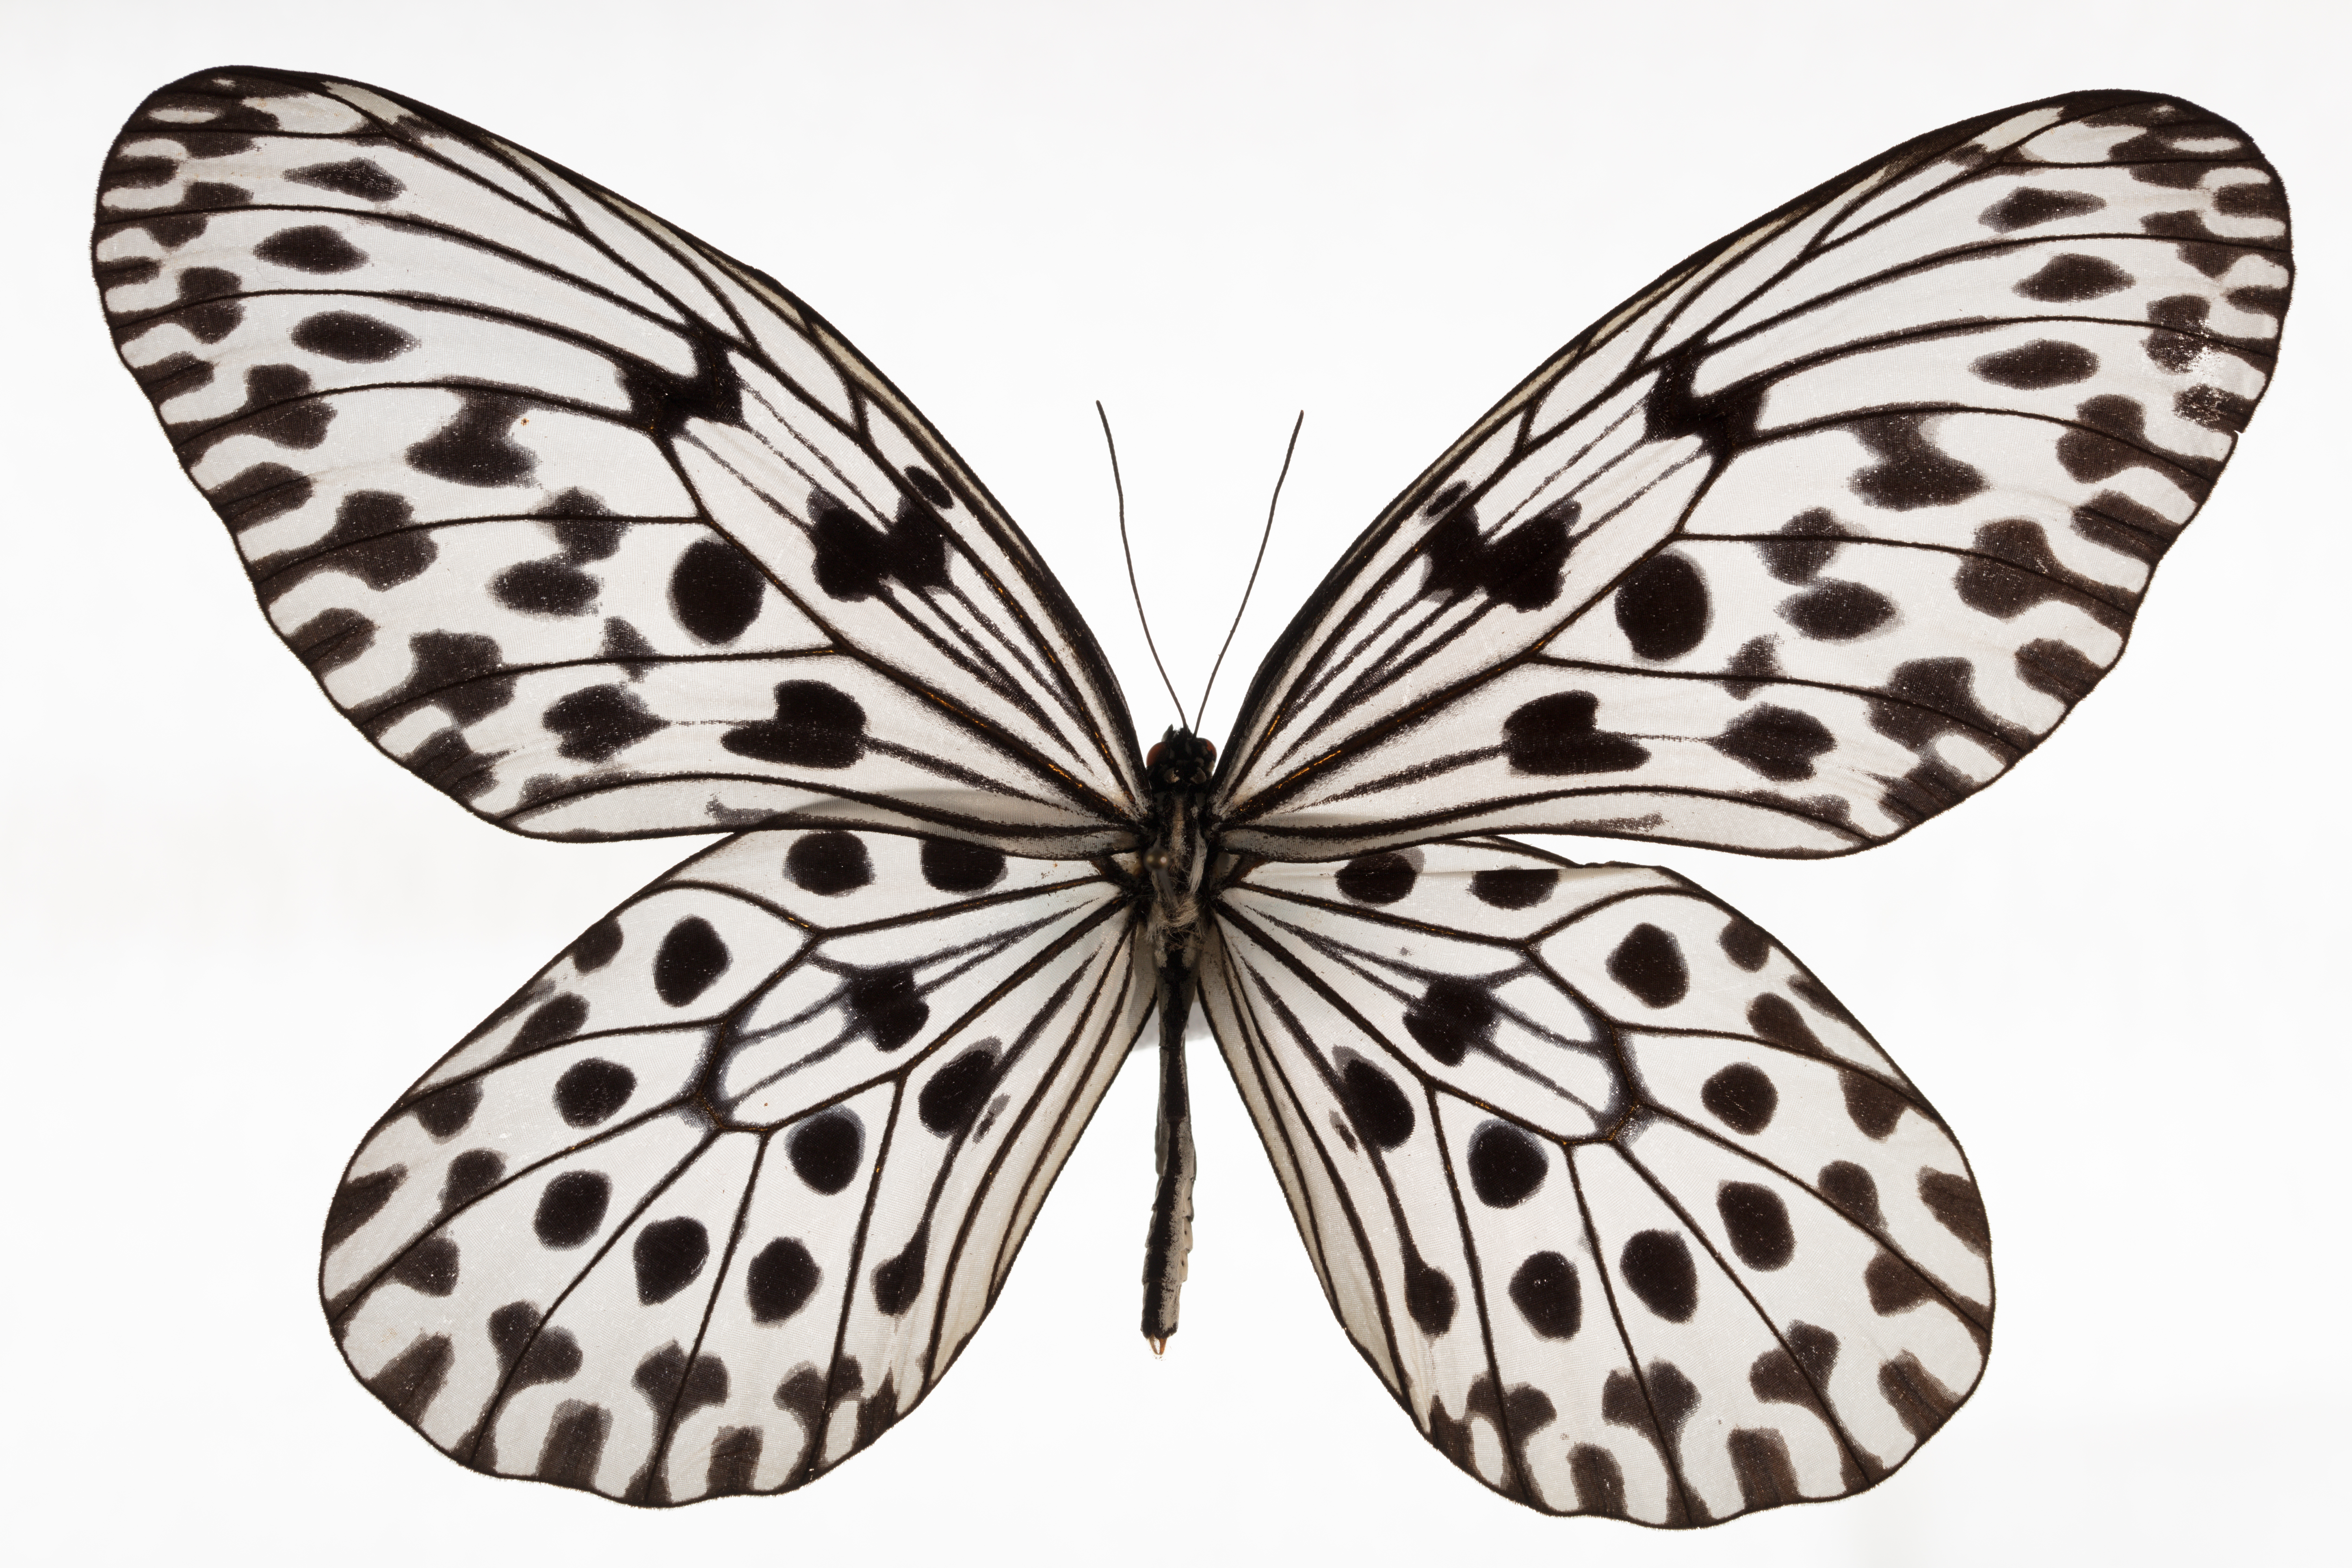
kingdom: Animalia
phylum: Arthropoda
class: Insecta
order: Lepidoptera
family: Nymphalidae
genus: Idea
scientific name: Idea hypermnestra
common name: Malayan tree nymph
